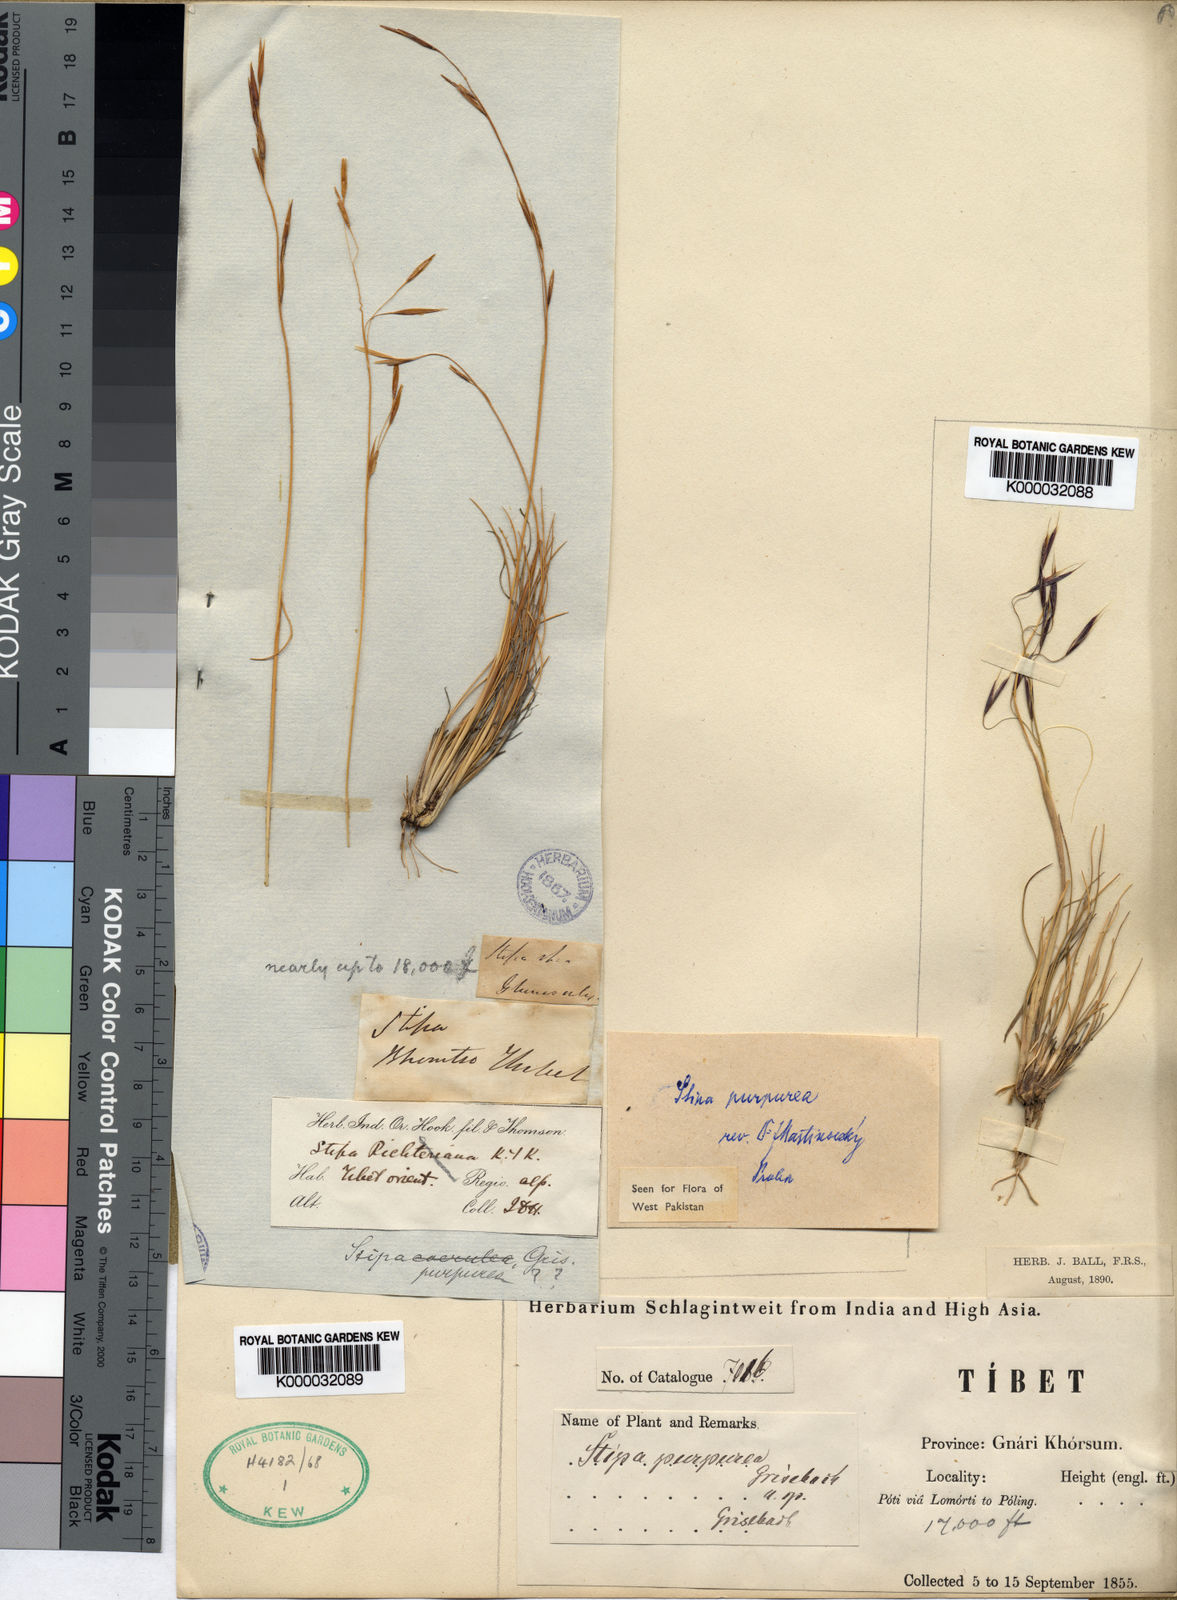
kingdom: Plantae
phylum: Tracheophyta
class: Liliopsida
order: Poales
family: Poaceae
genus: Stipa
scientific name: Stipa purpurea
